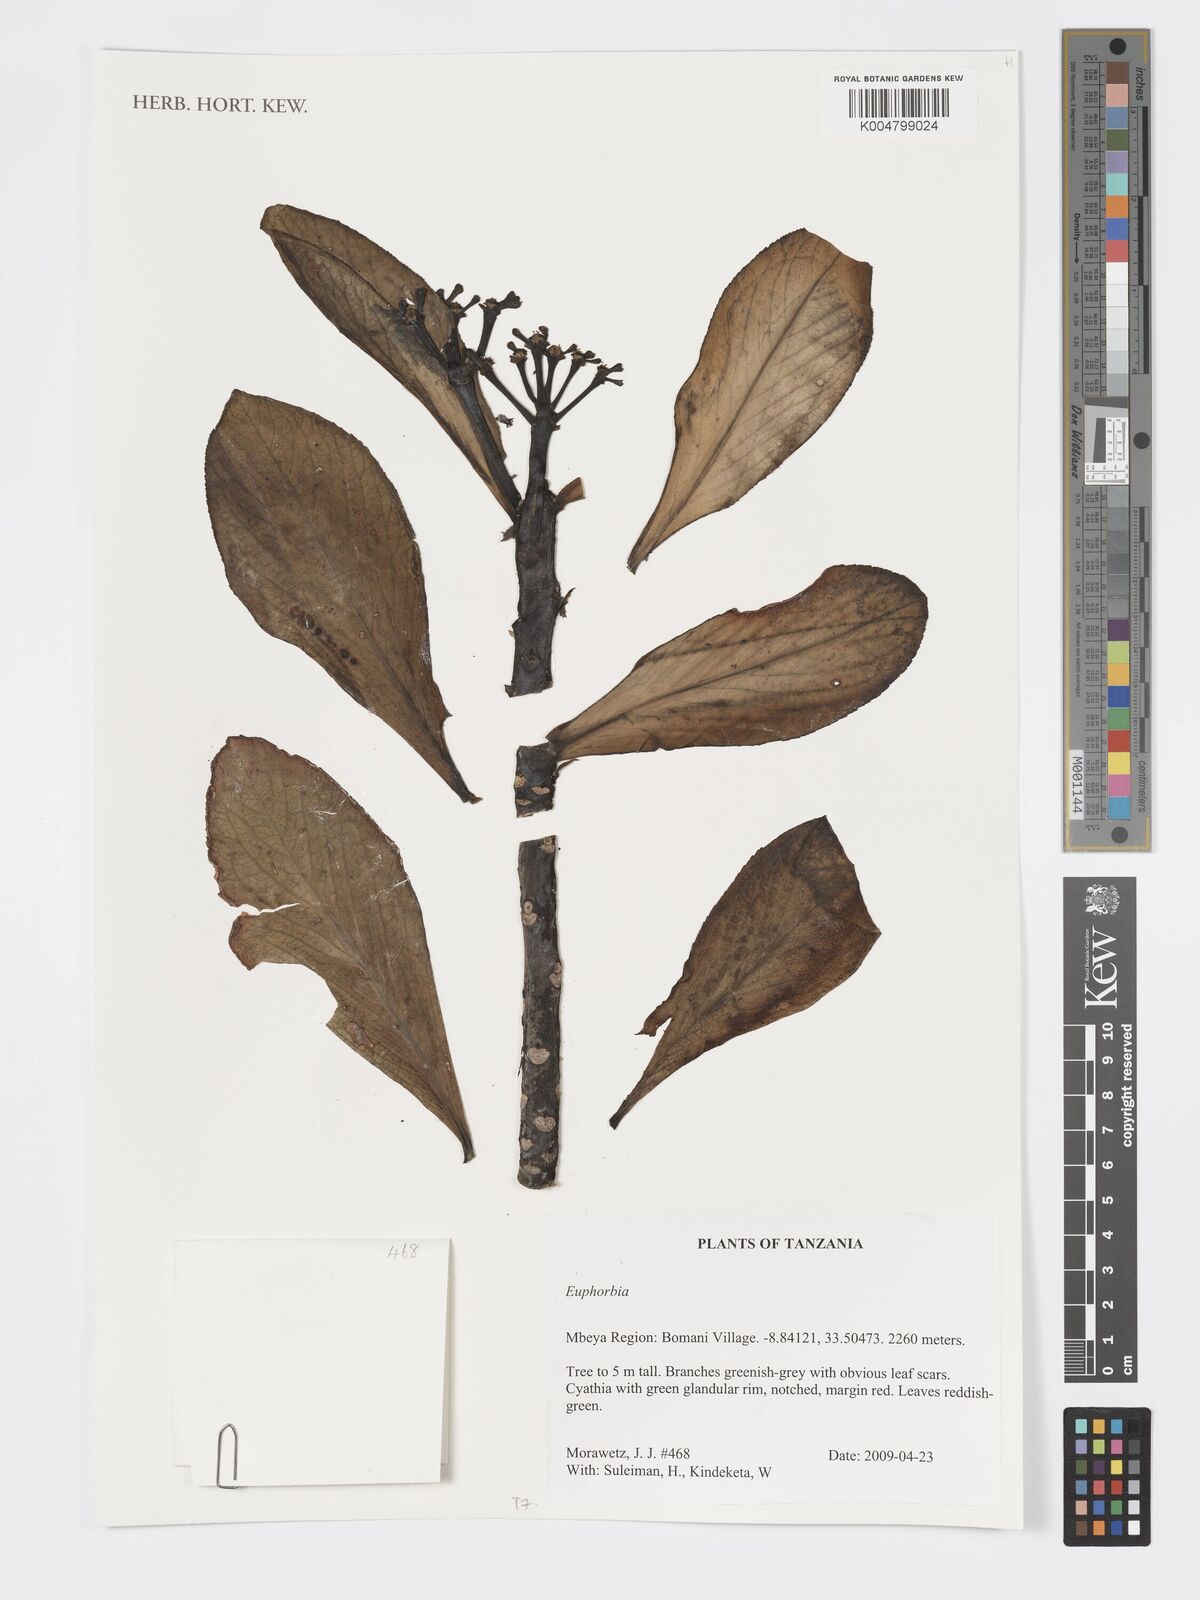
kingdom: Plantae
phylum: Tracheophyta
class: Magnoliopsida
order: Malpighiales
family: Euphorbiaceae
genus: Euphorbia
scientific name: Euphorbia
